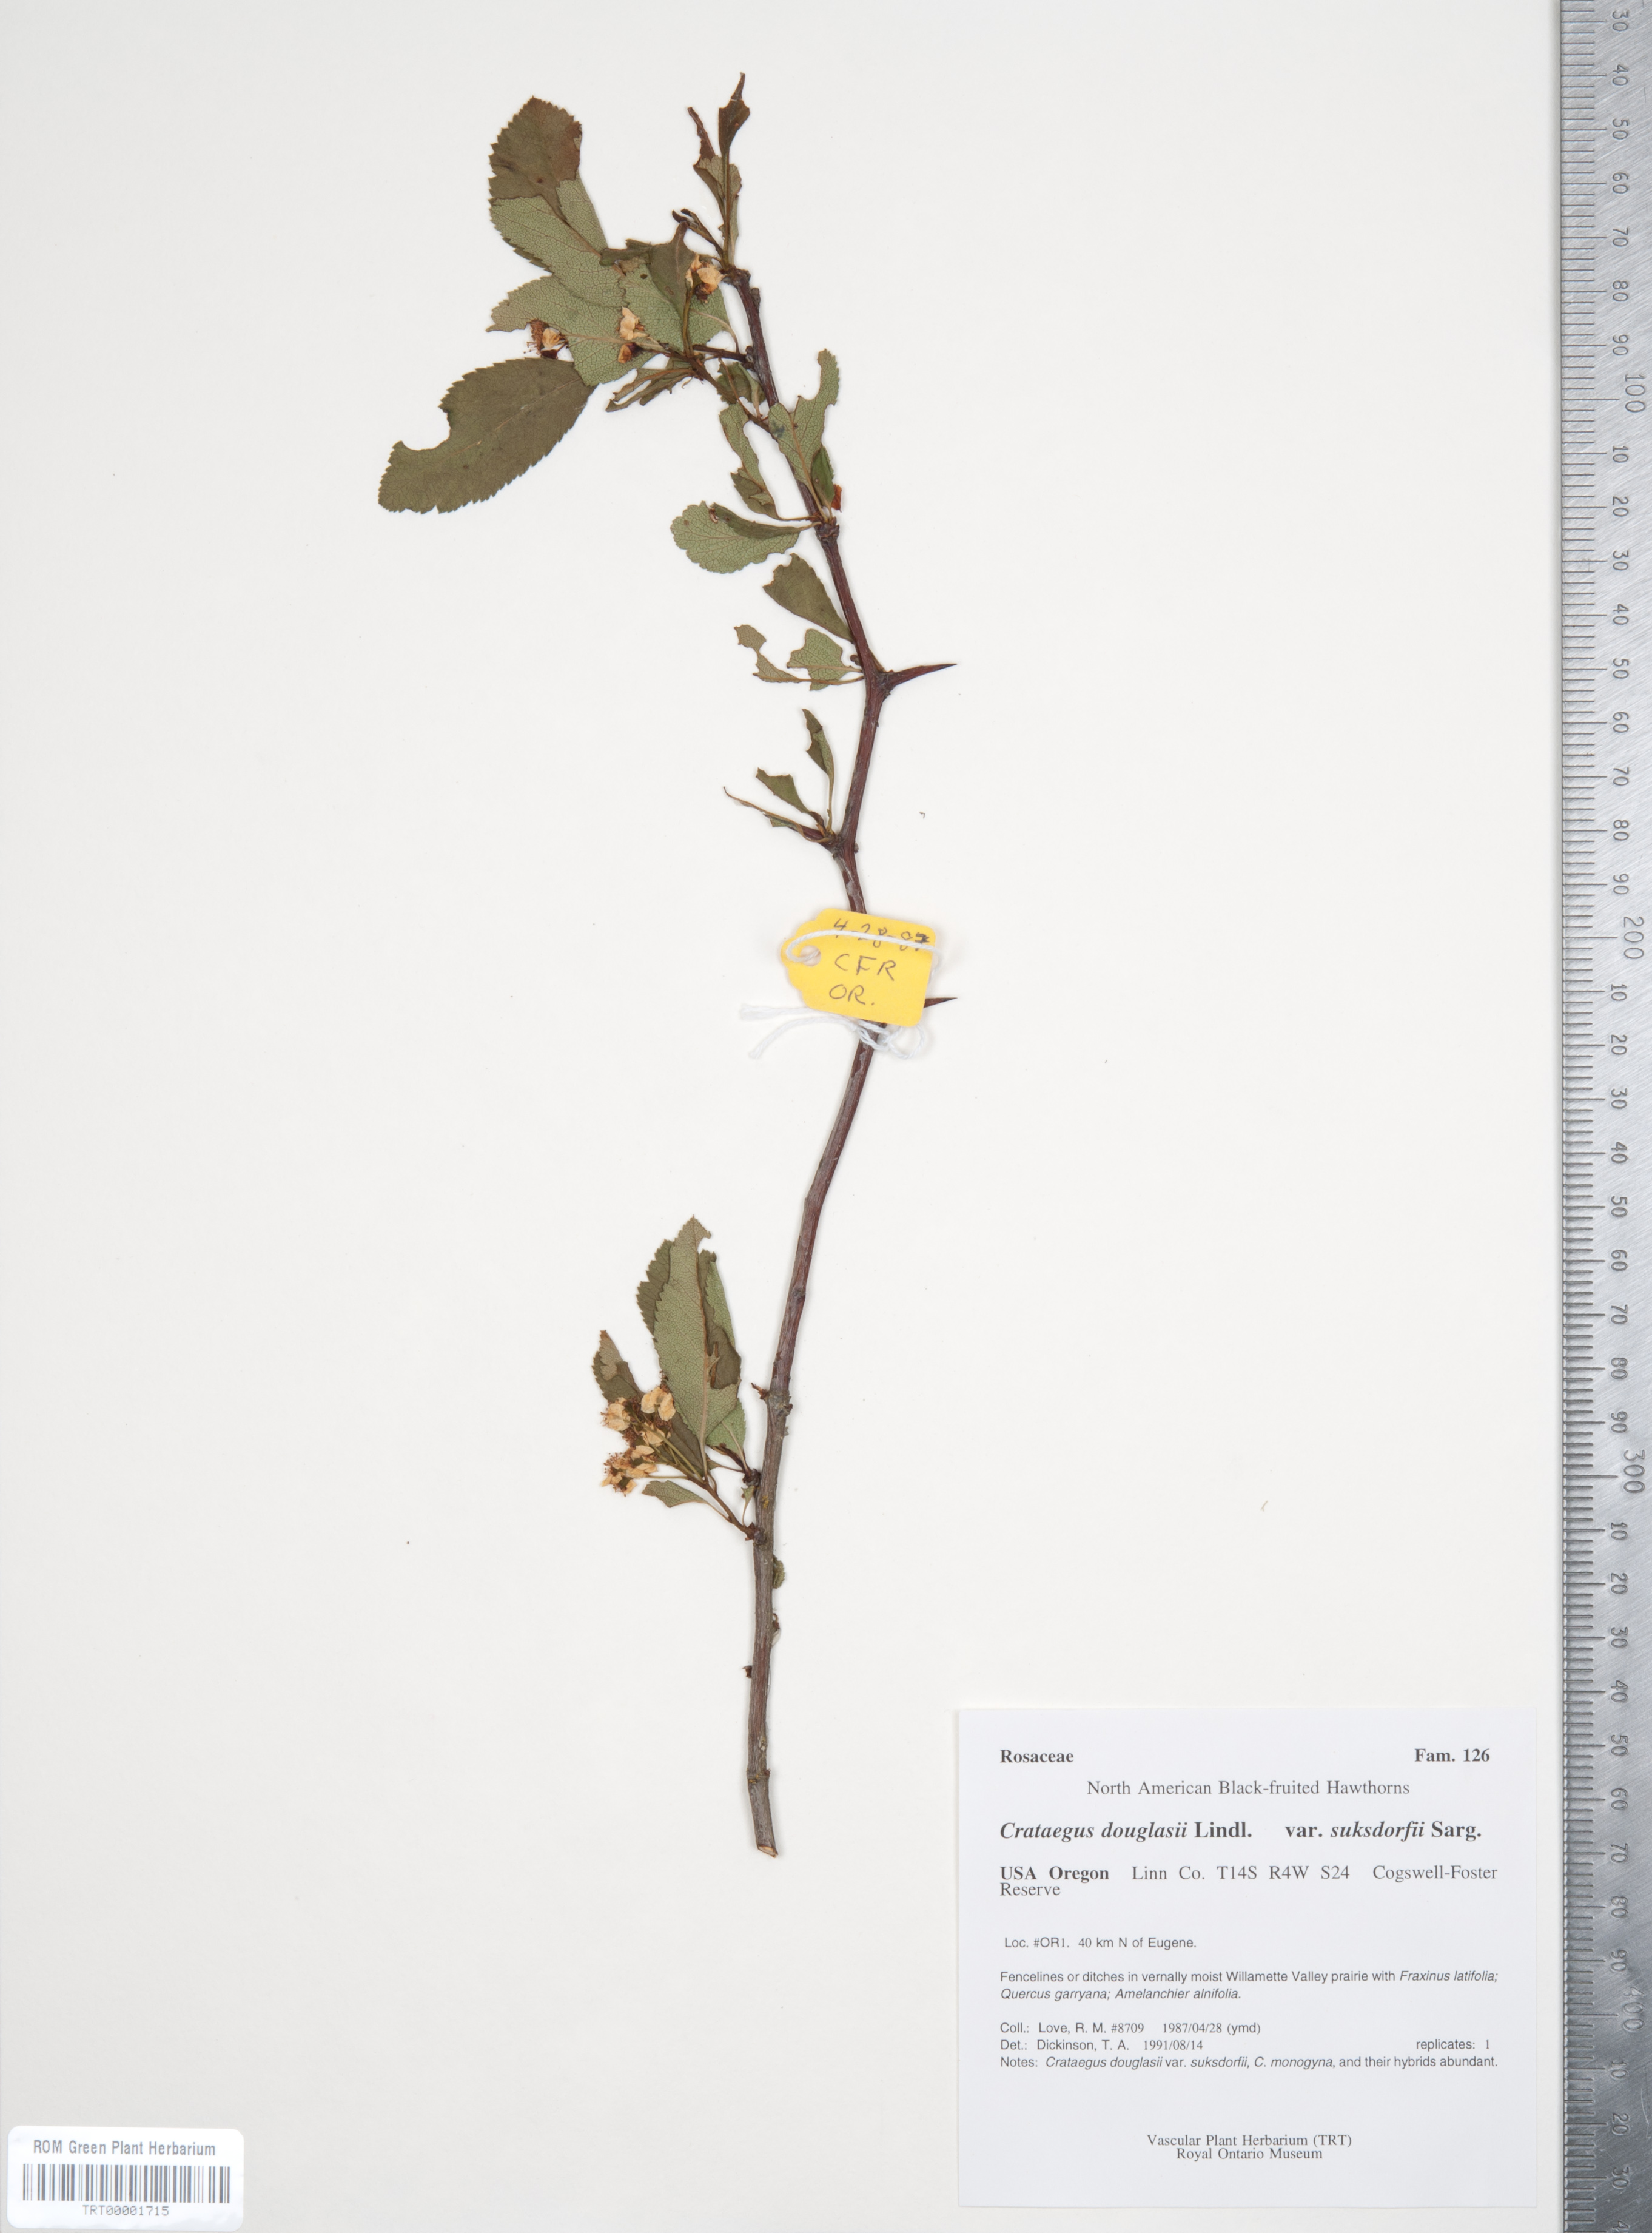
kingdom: Plantae
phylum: Tracheophyta
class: Magnoliopsida
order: Rosales
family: Rosaceae
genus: Crataegus
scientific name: Crataegus gaylussacia
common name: Huckleberry hawthorn
